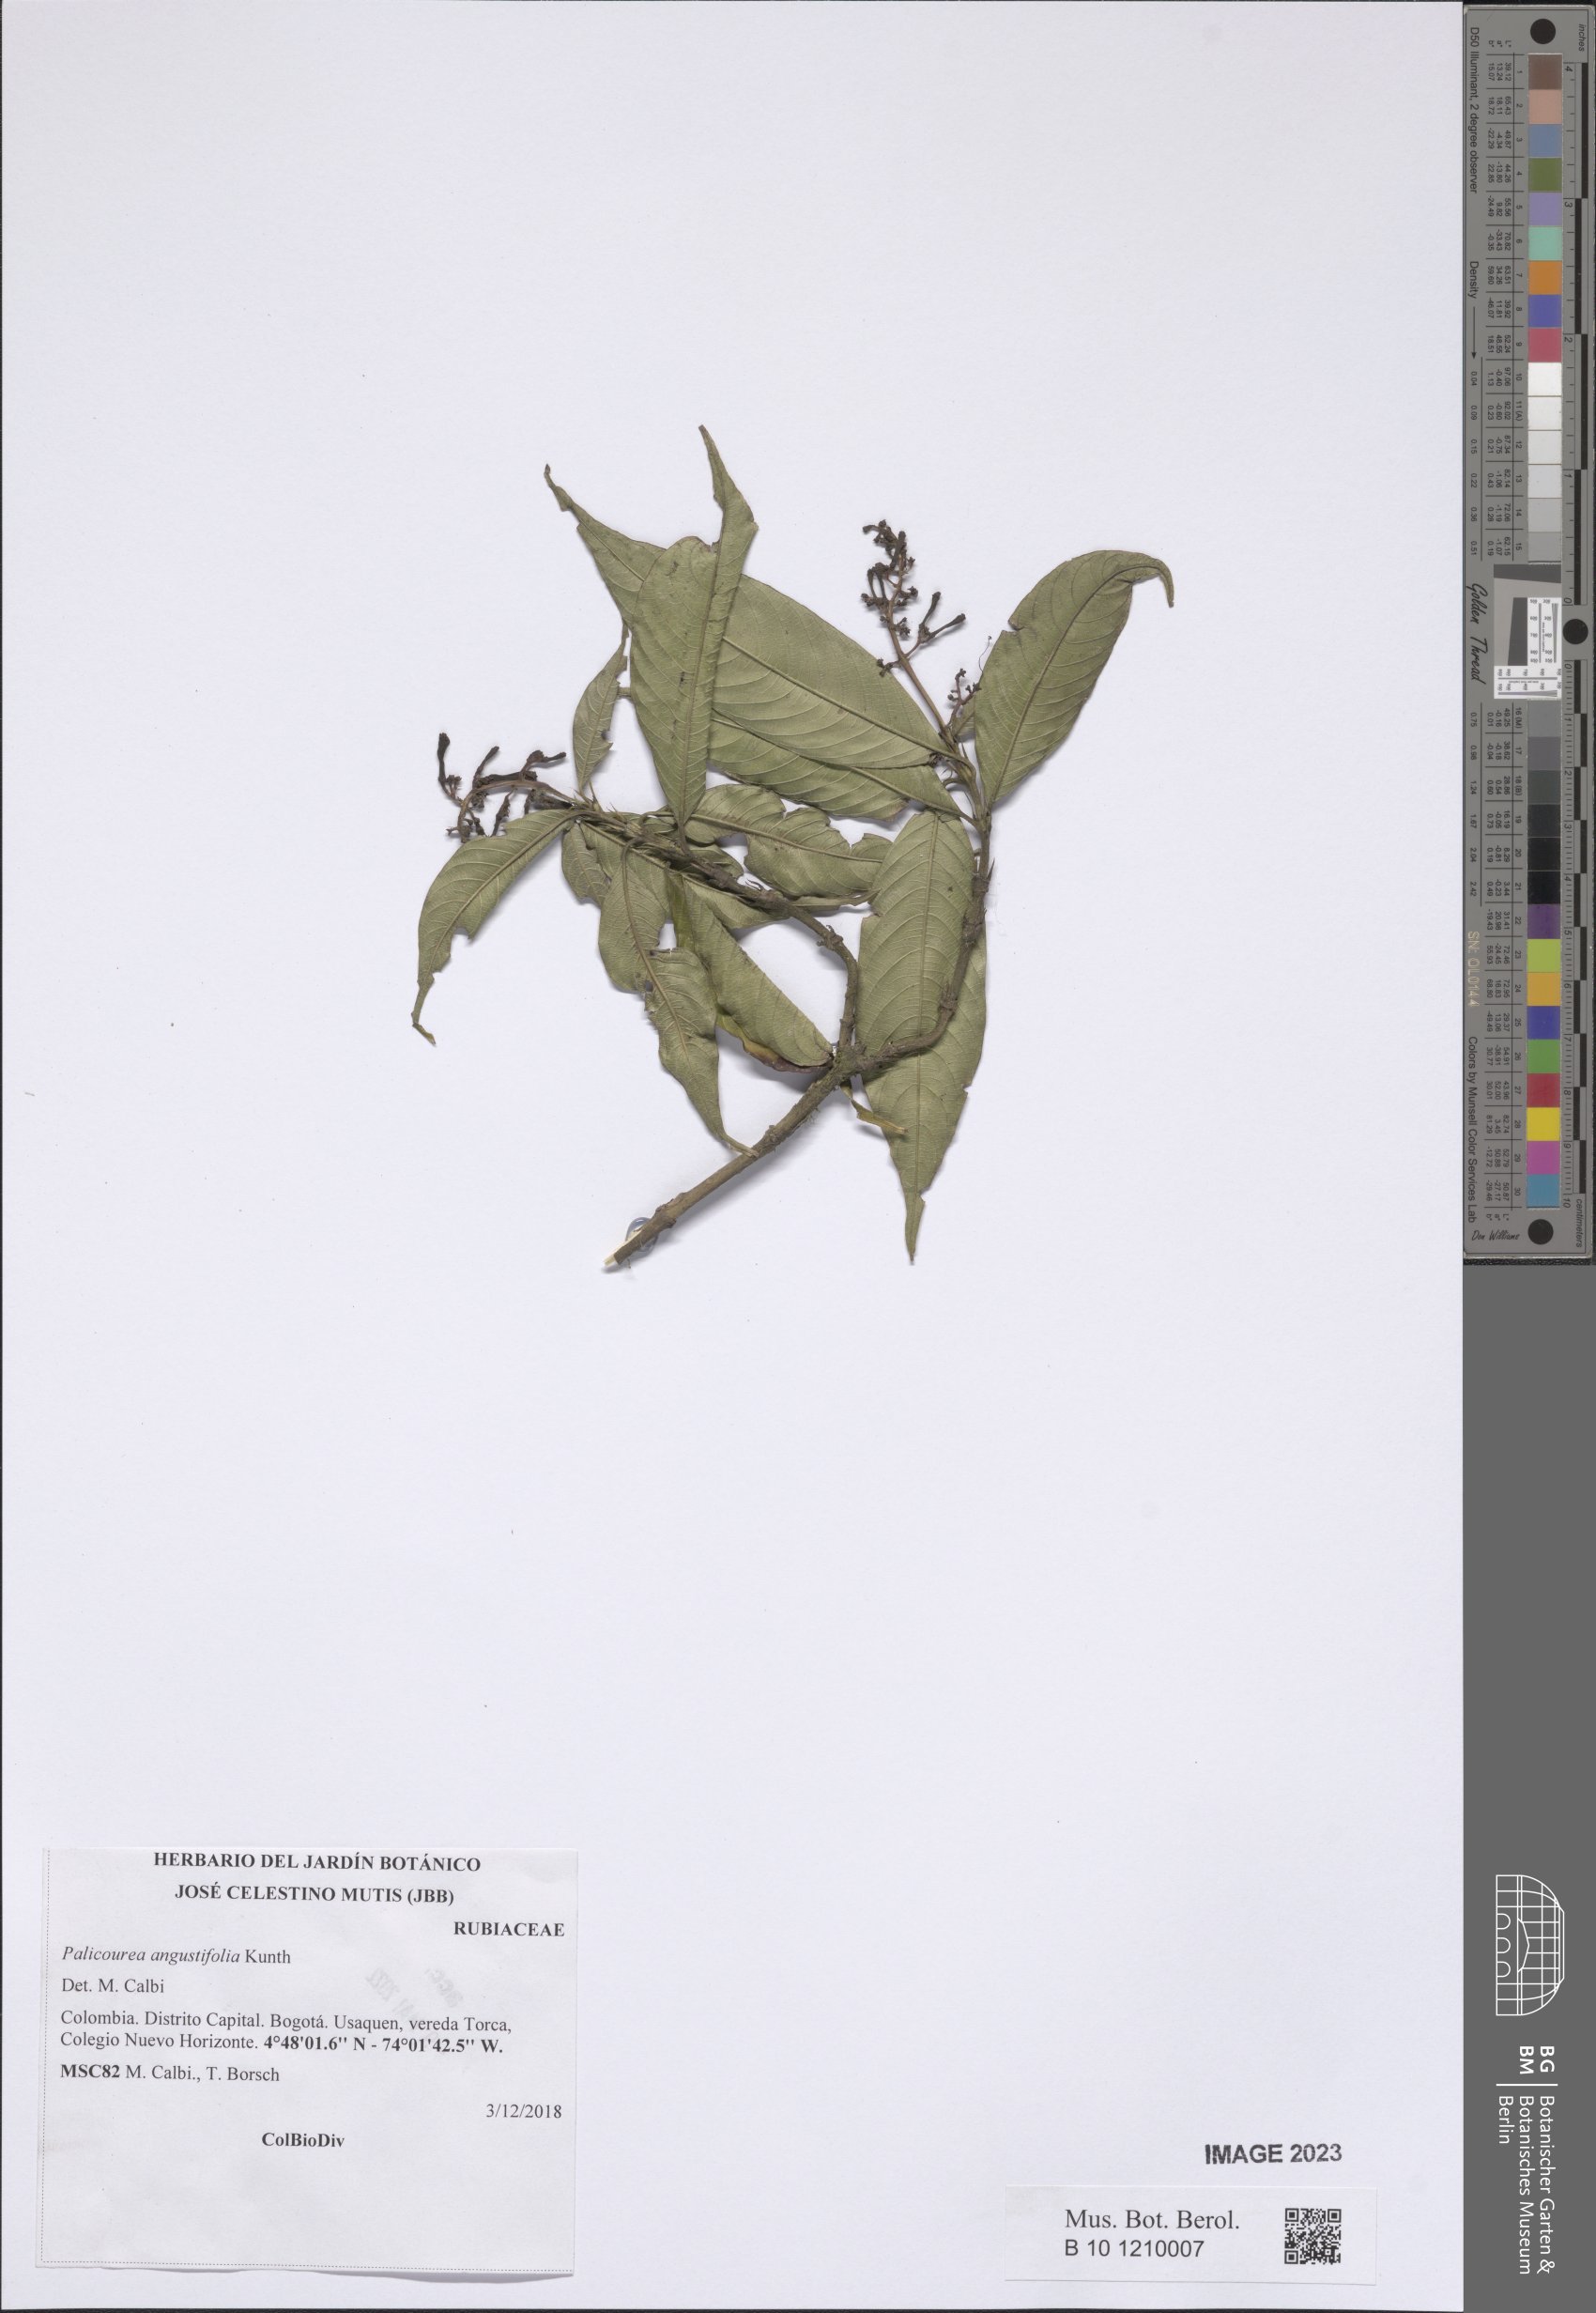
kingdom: Plantae
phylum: Tracheophyta
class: Magnoliopsida
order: Gentianales
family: Rubiaceae
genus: Palicourea
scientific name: Palicourea angustifolia
